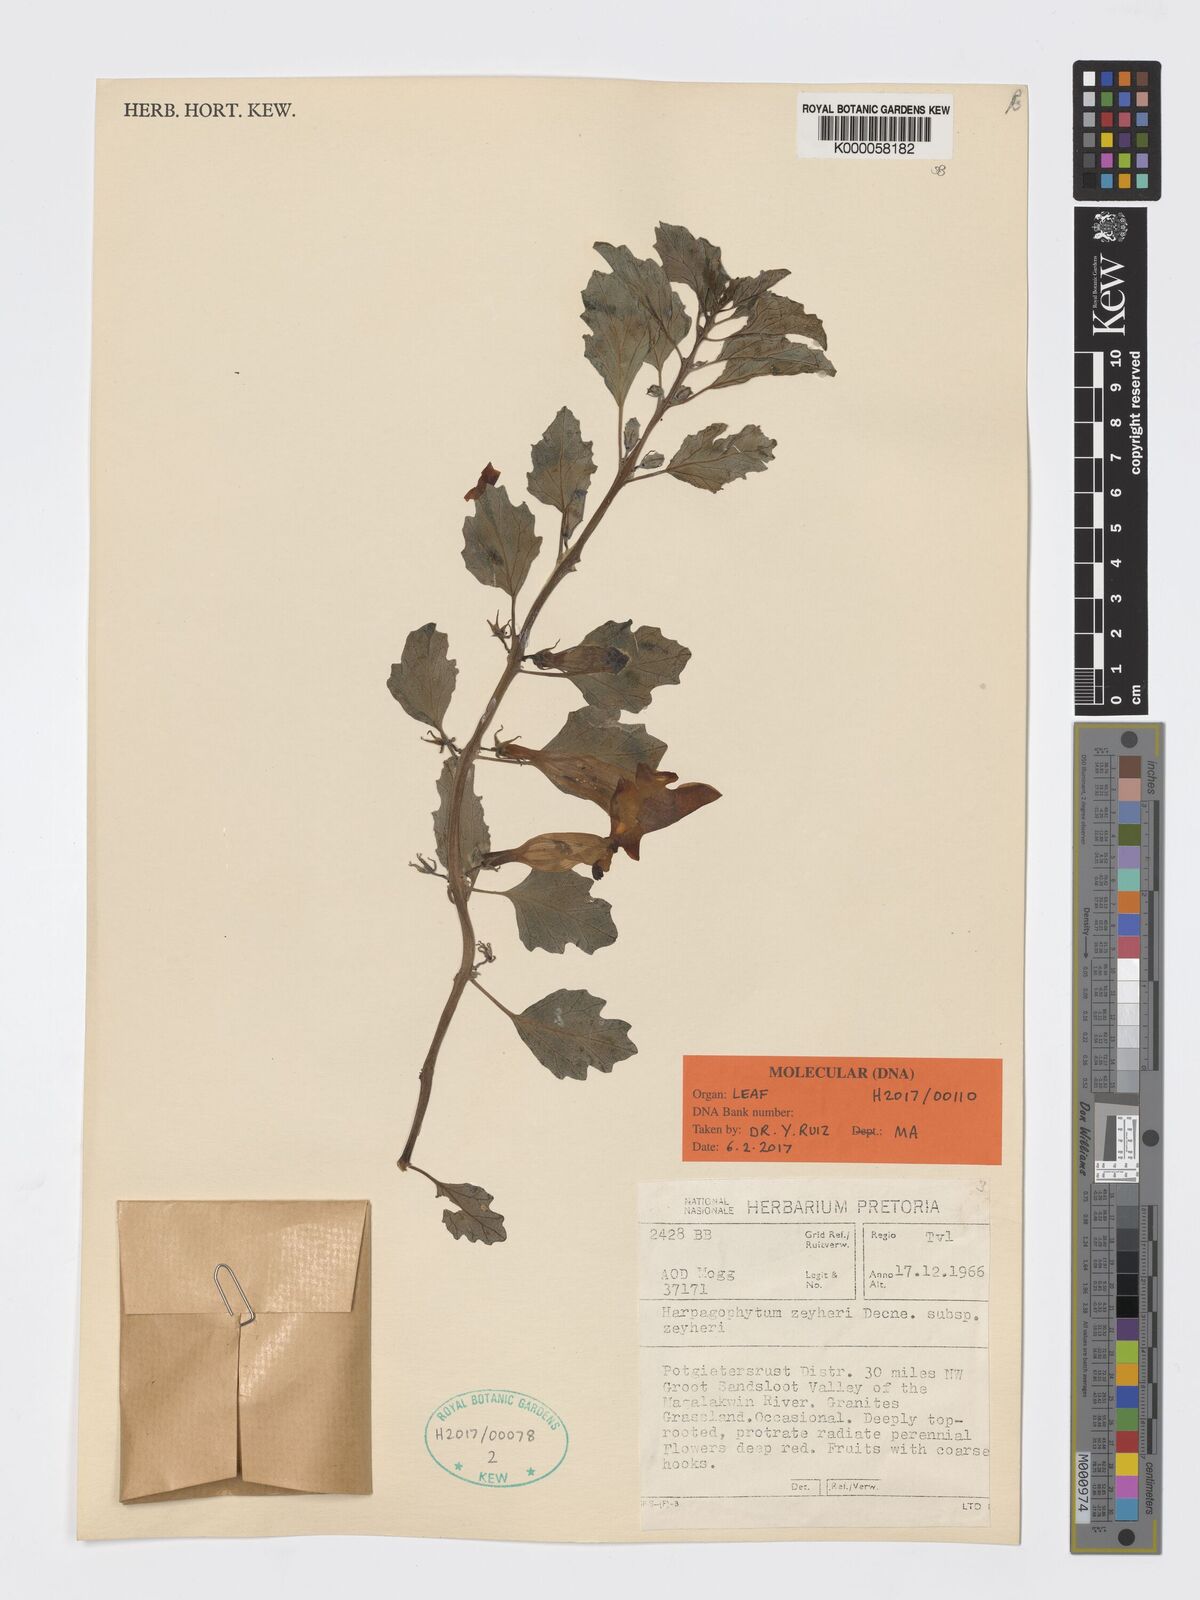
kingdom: Plantae
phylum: Tracheophyta
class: Magnoliopsida
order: Lamiales
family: Pedaliaceae
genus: Harpagophytum
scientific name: Harpagophytum zeyheri
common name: Grappleplant
